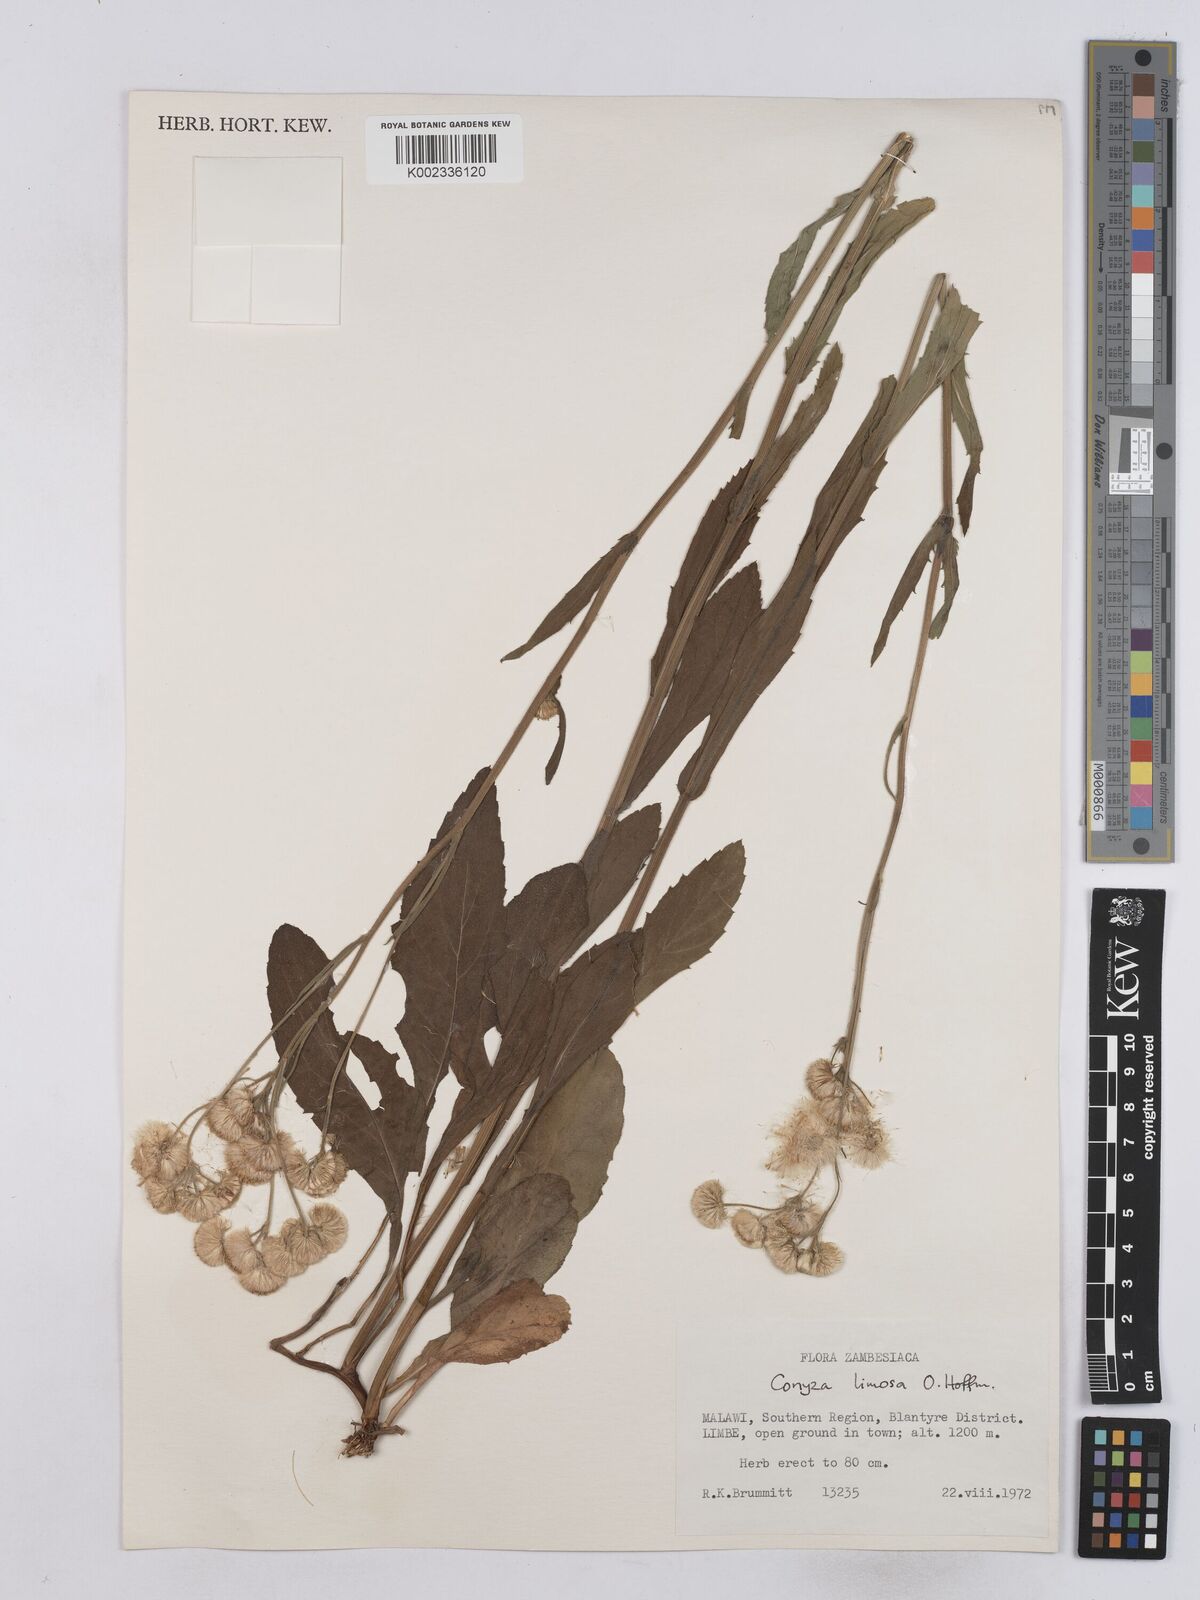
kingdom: Plantae
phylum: Tracheophyta
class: Magnoliopsida
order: Asterales
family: Asteraceae
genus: Conyza
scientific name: Conyza limosa
